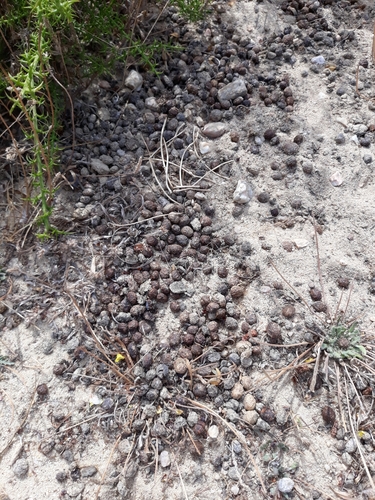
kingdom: Animalia
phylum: Chordata
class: Mammalia
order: Lagomorpha
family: Leporidae
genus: Oryctolagus
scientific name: Oryctolagus cuniculus
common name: European rabbit
